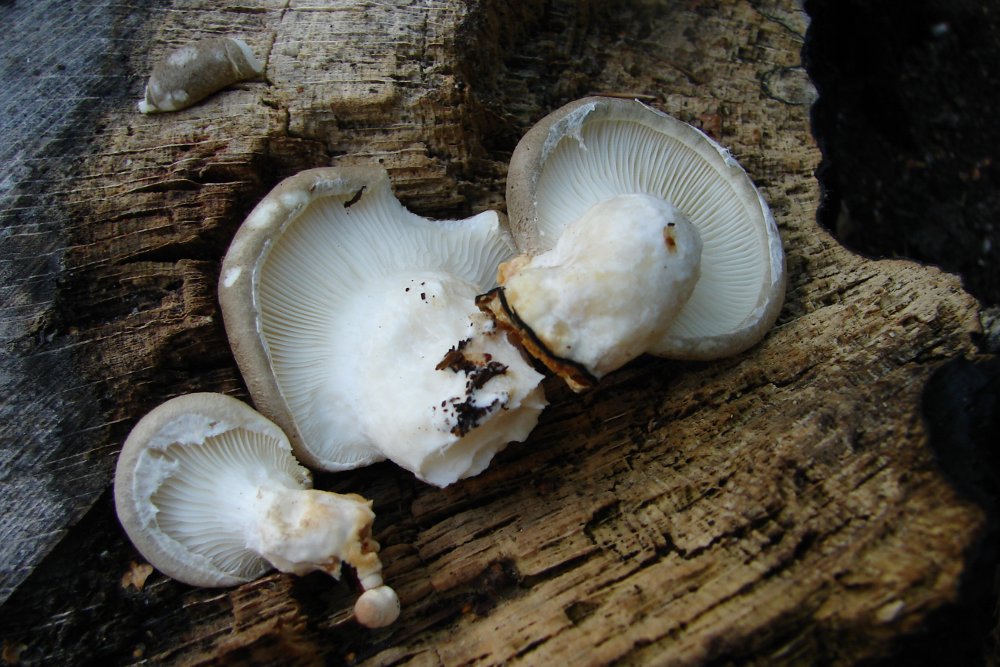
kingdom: Fungi
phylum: Basidiomycota
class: Agaricomycetes
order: Agaricales
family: Pleurotaceae
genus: Pleurotus
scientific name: Pleurotus dryinus
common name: korkagtig østershat
